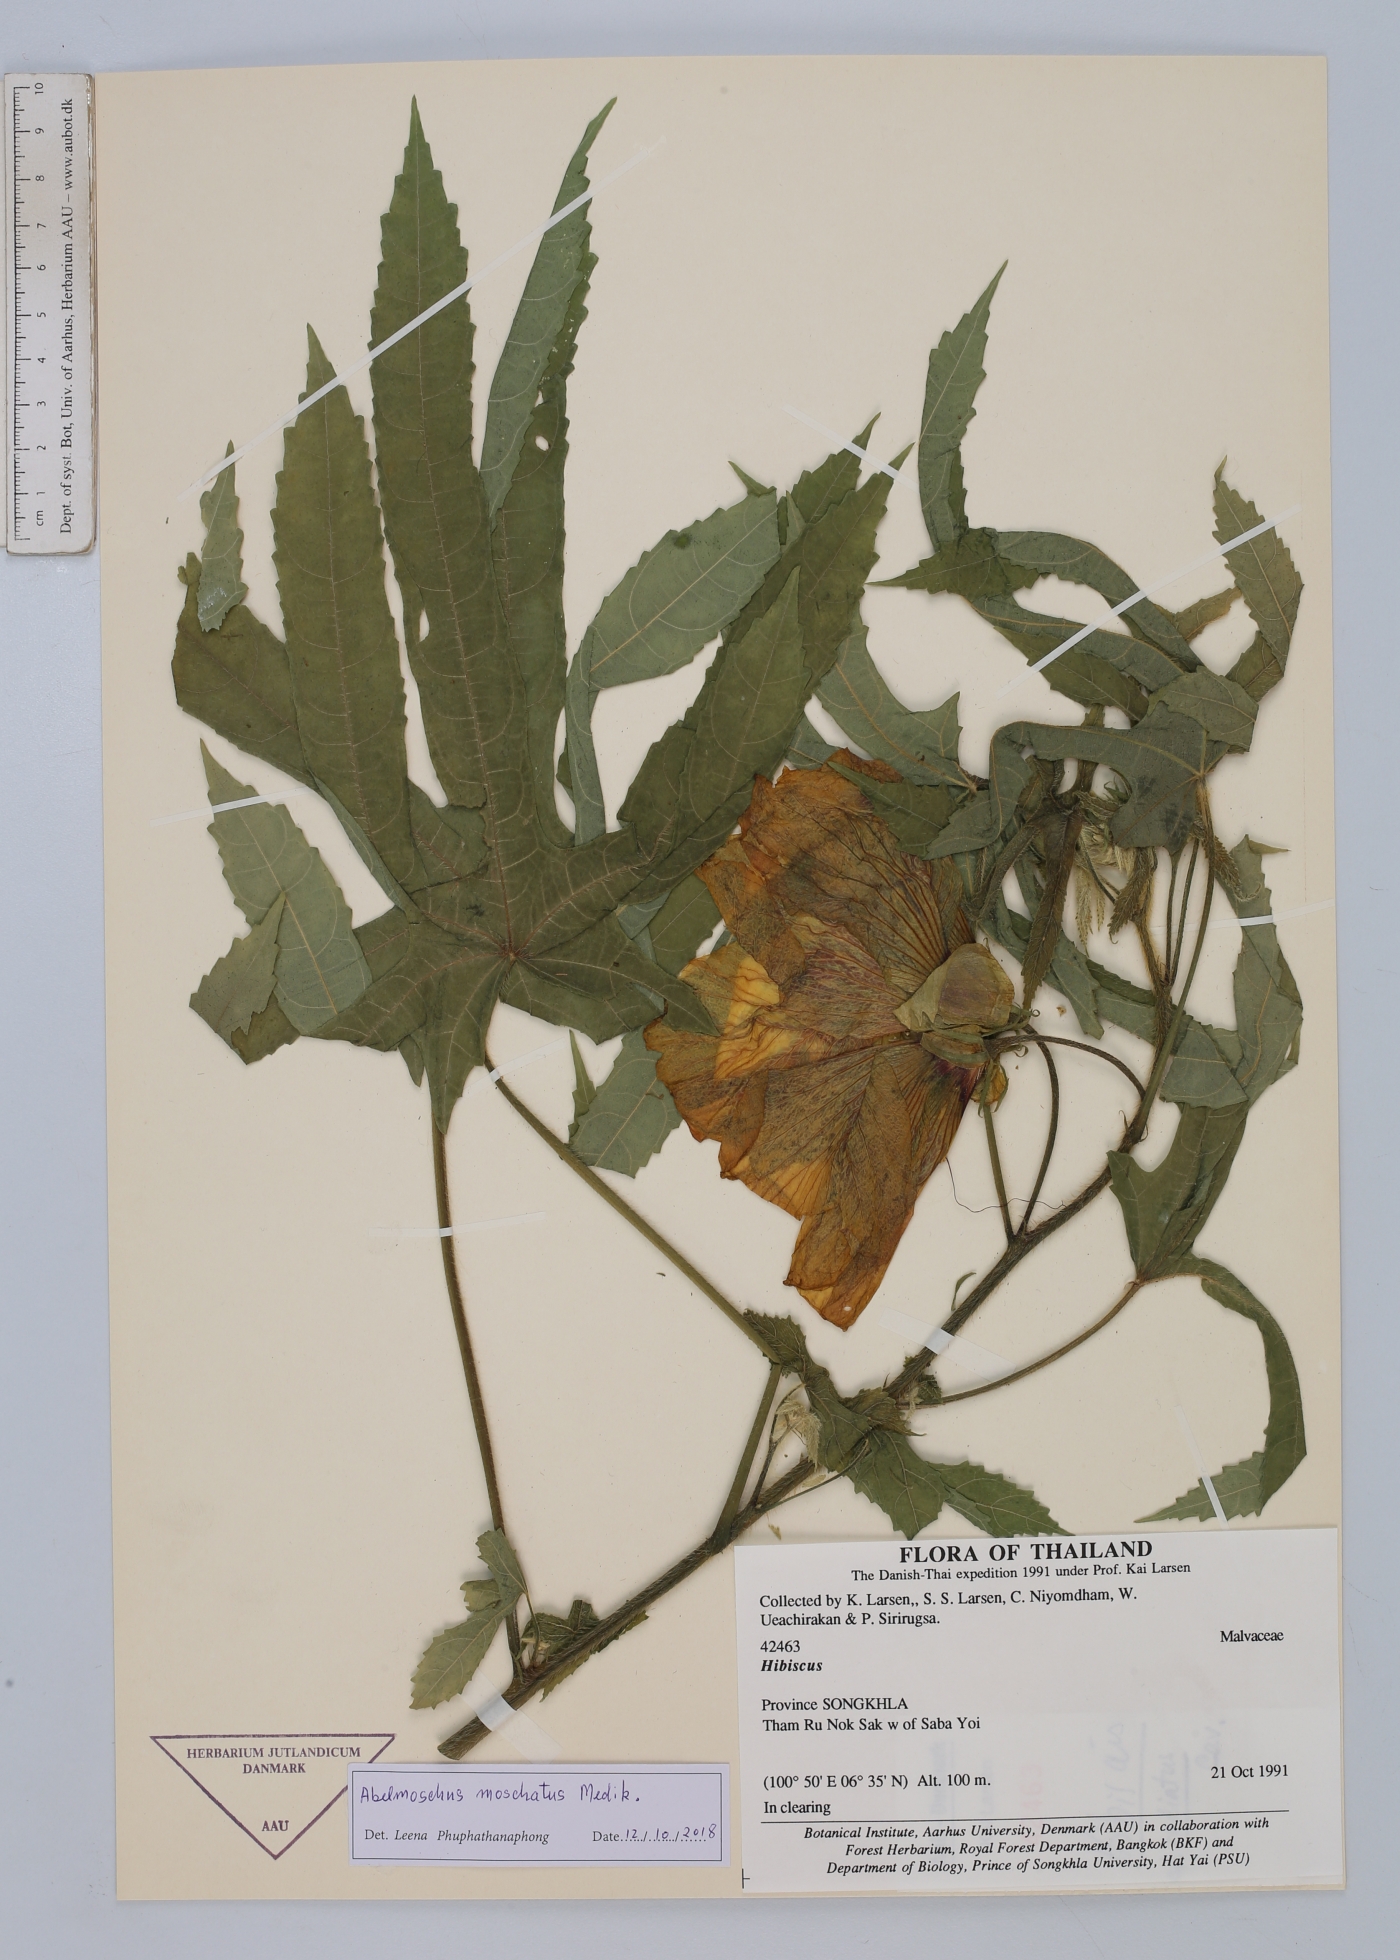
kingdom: Plantae
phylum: Tracheophyta
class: Magnoliopsida
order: Malvales
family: Malvaceae
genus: Abelmoschus
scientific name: Abelmoschus moschatus
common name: Musk okra
